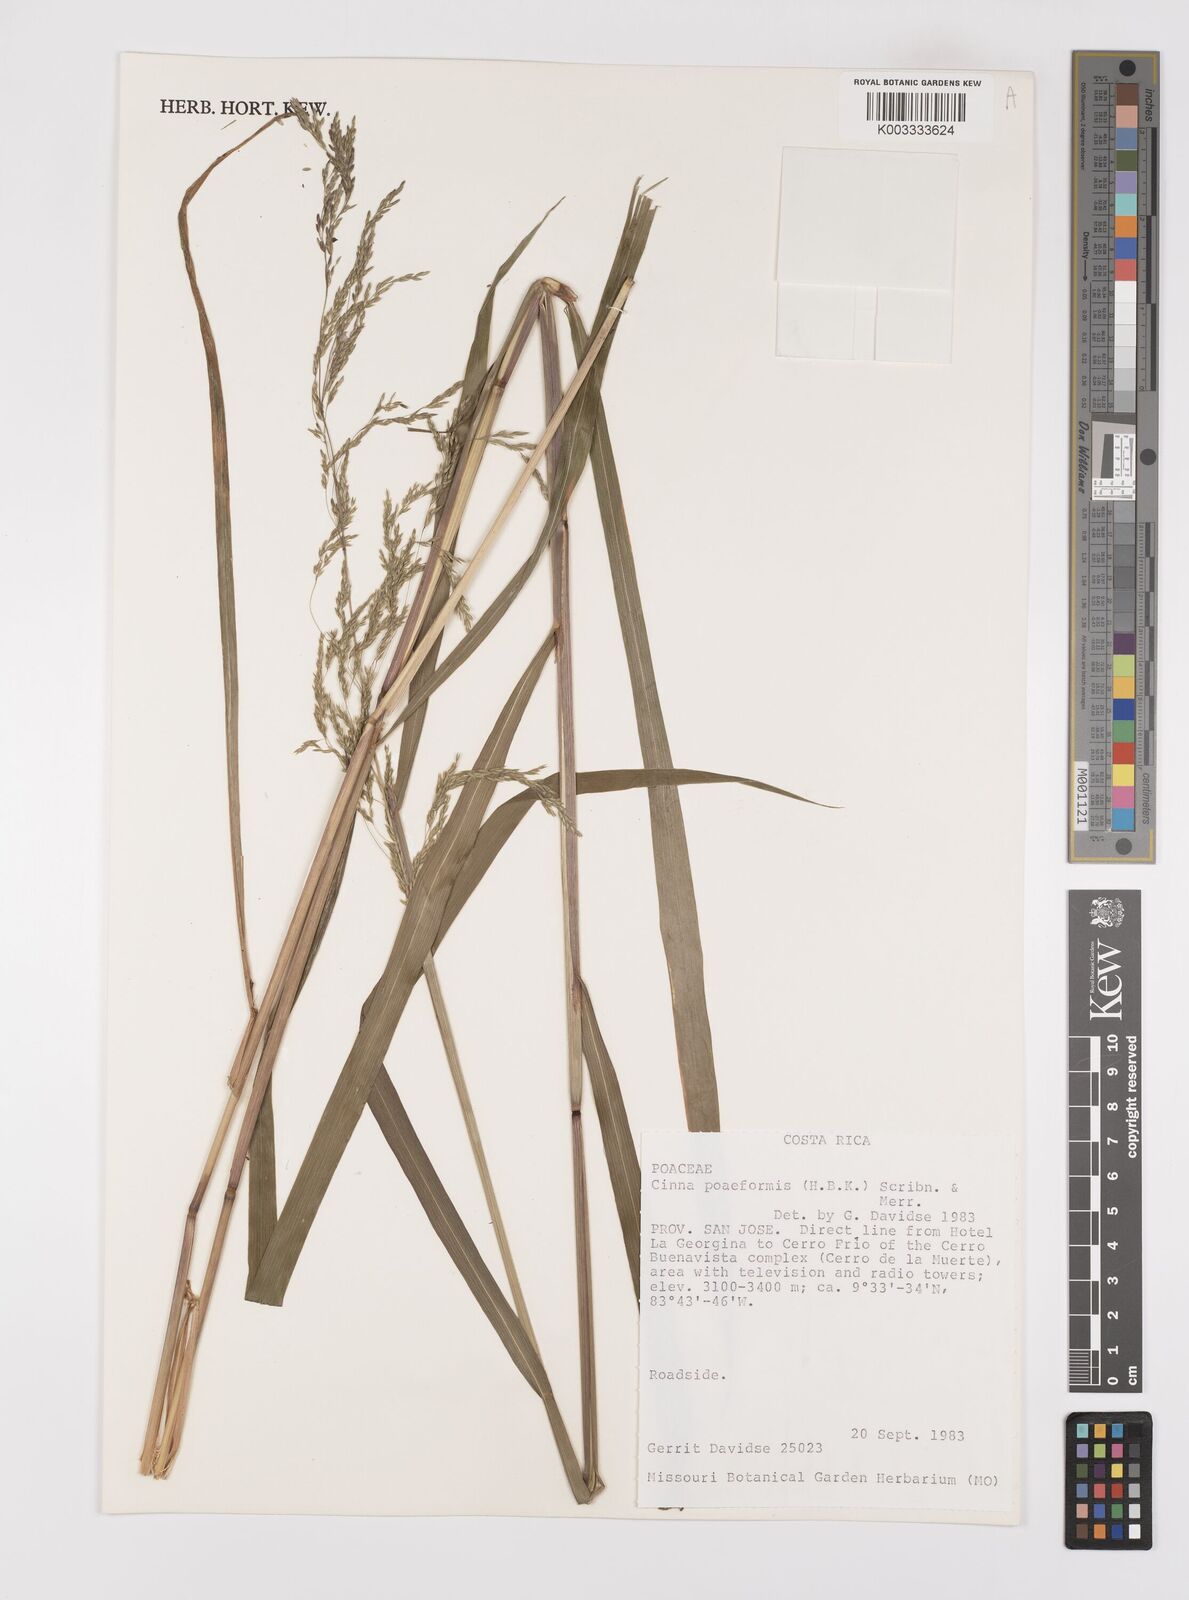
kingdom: Plantae
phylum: Tracheophyta
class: Liliopsida
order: Poales
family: Poaceae
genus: Cinnastrum
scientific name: Cinnastrum poiforme
